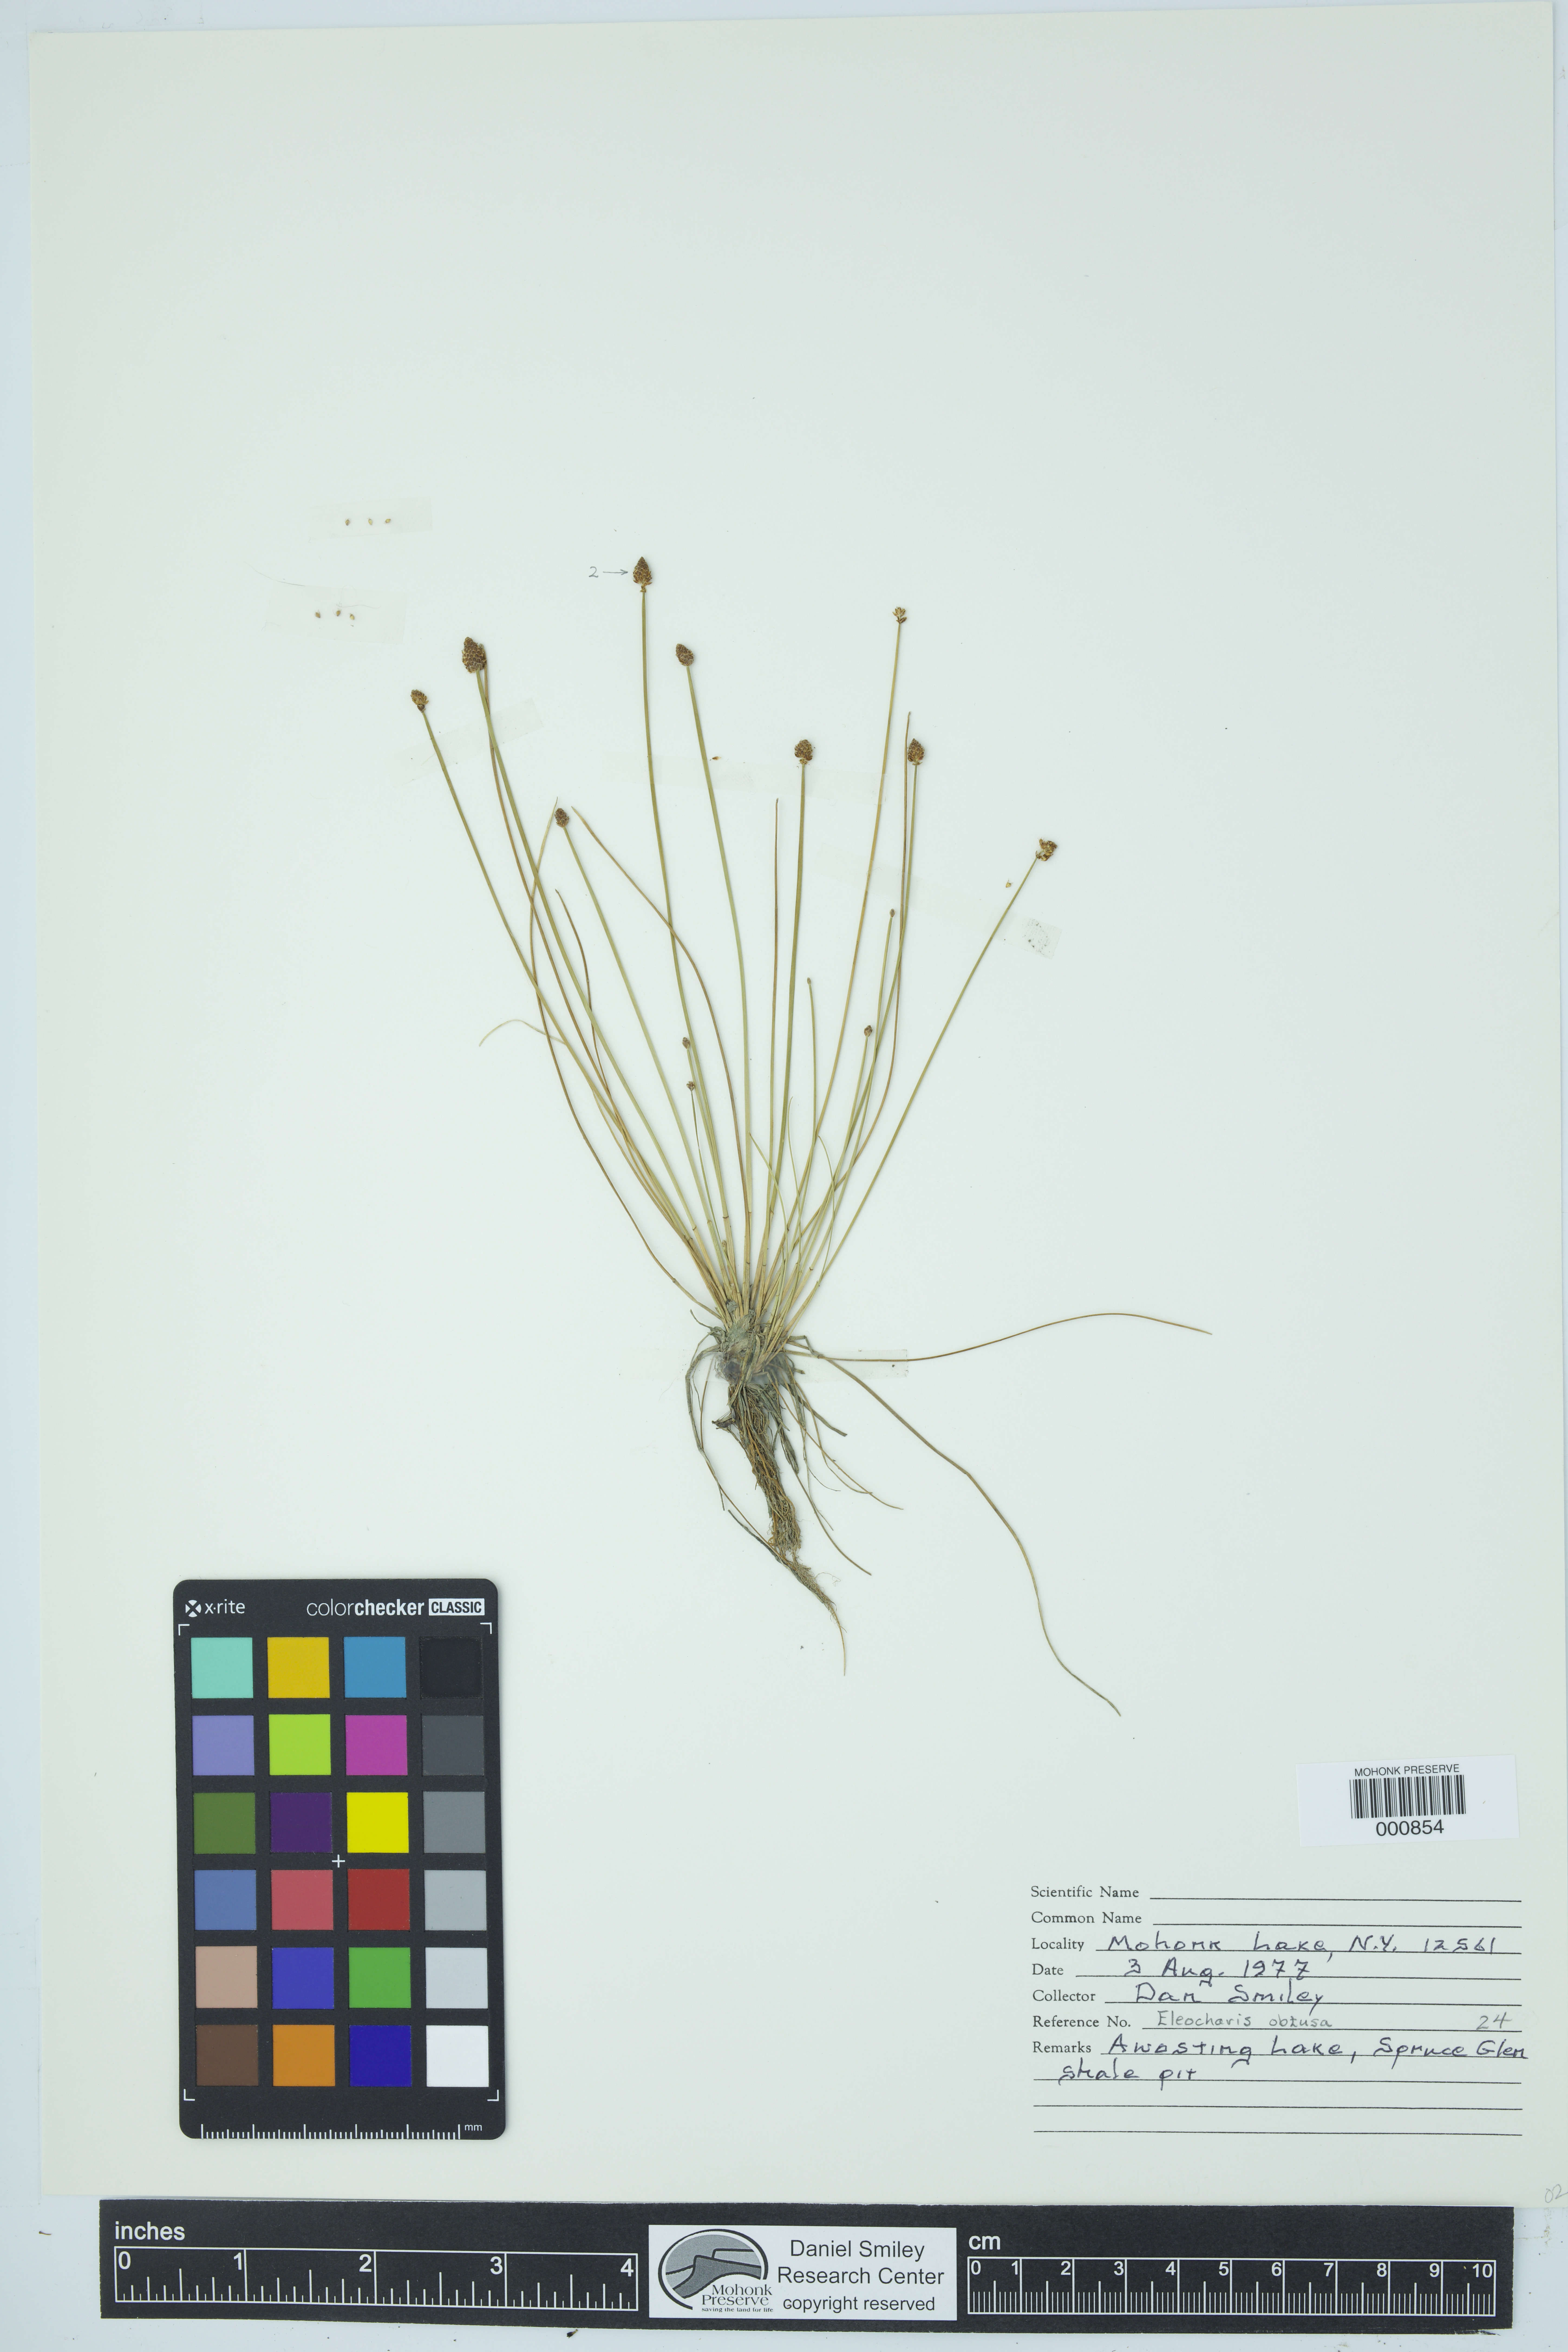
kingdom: Plantae
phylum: Tracheophyta
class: Liliopsida
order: Poales
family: Cyperaceae
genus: Eleocharis
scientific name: Eleocharis obtusa
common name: Blunt spikerush
